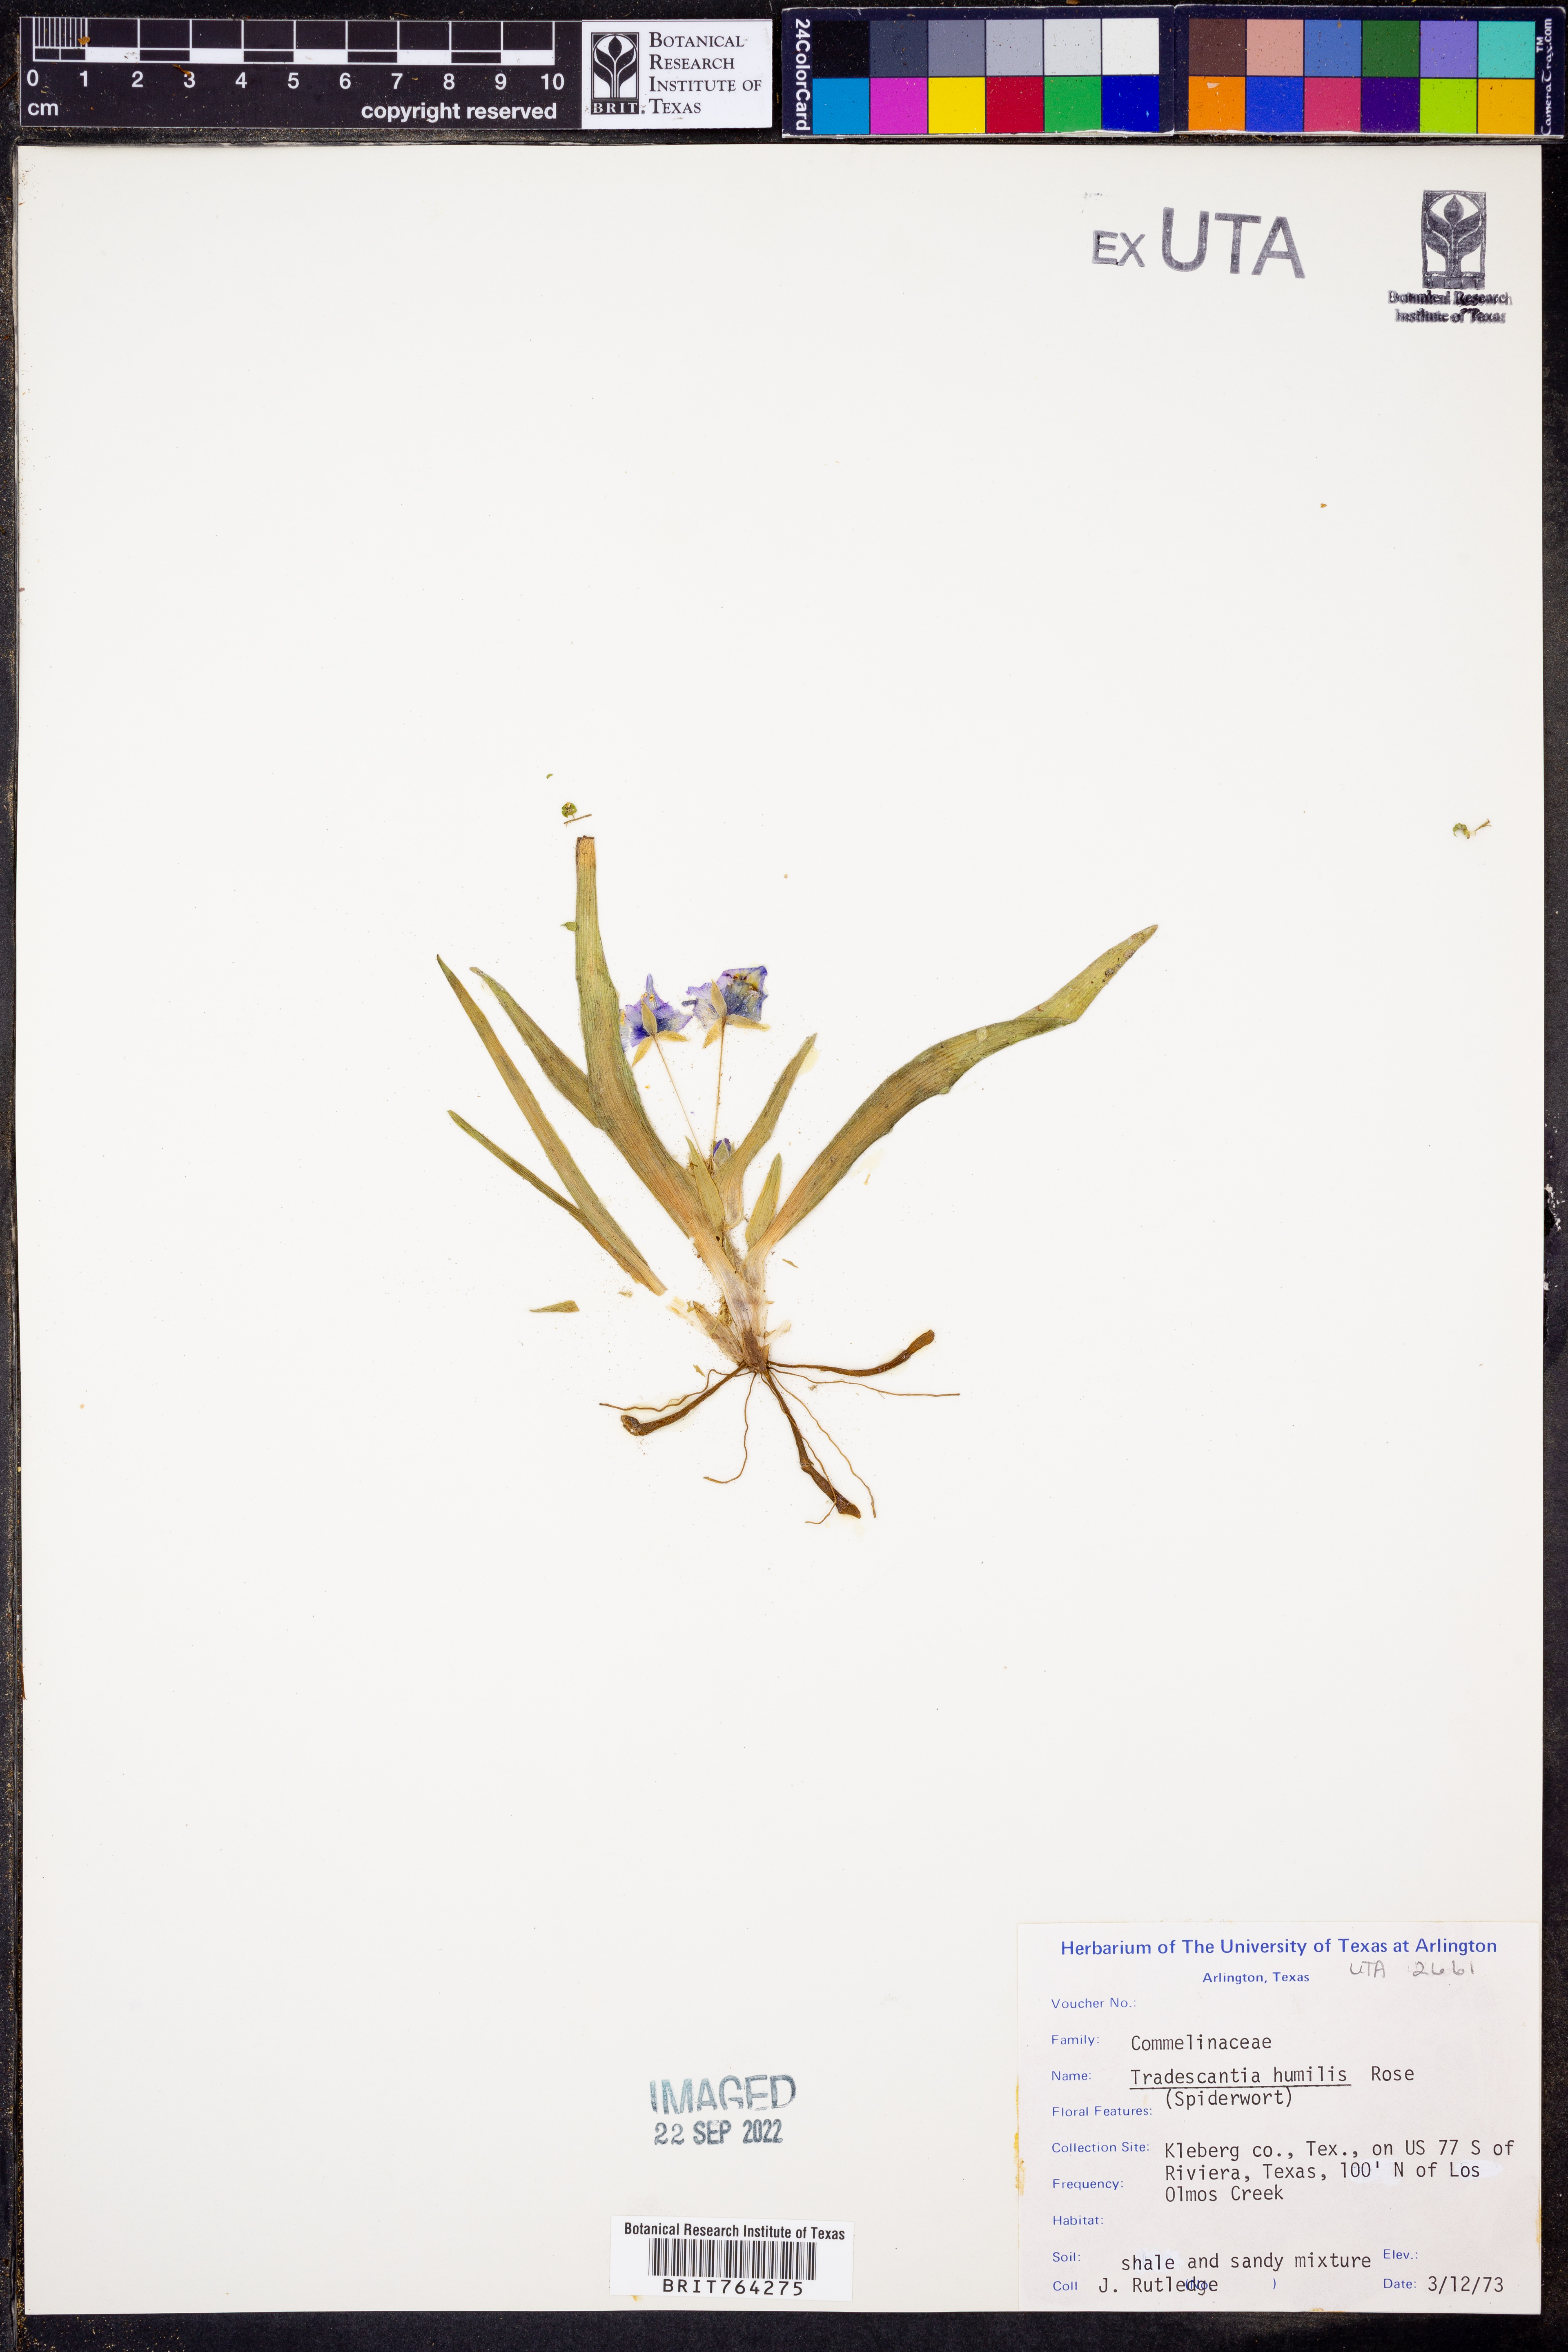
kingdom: Plantae
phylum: Tracheophyta
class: Liliopsida
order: Commelinales
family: Commelinaceae
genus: Tradescantia
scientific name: Tradescantia humilis
